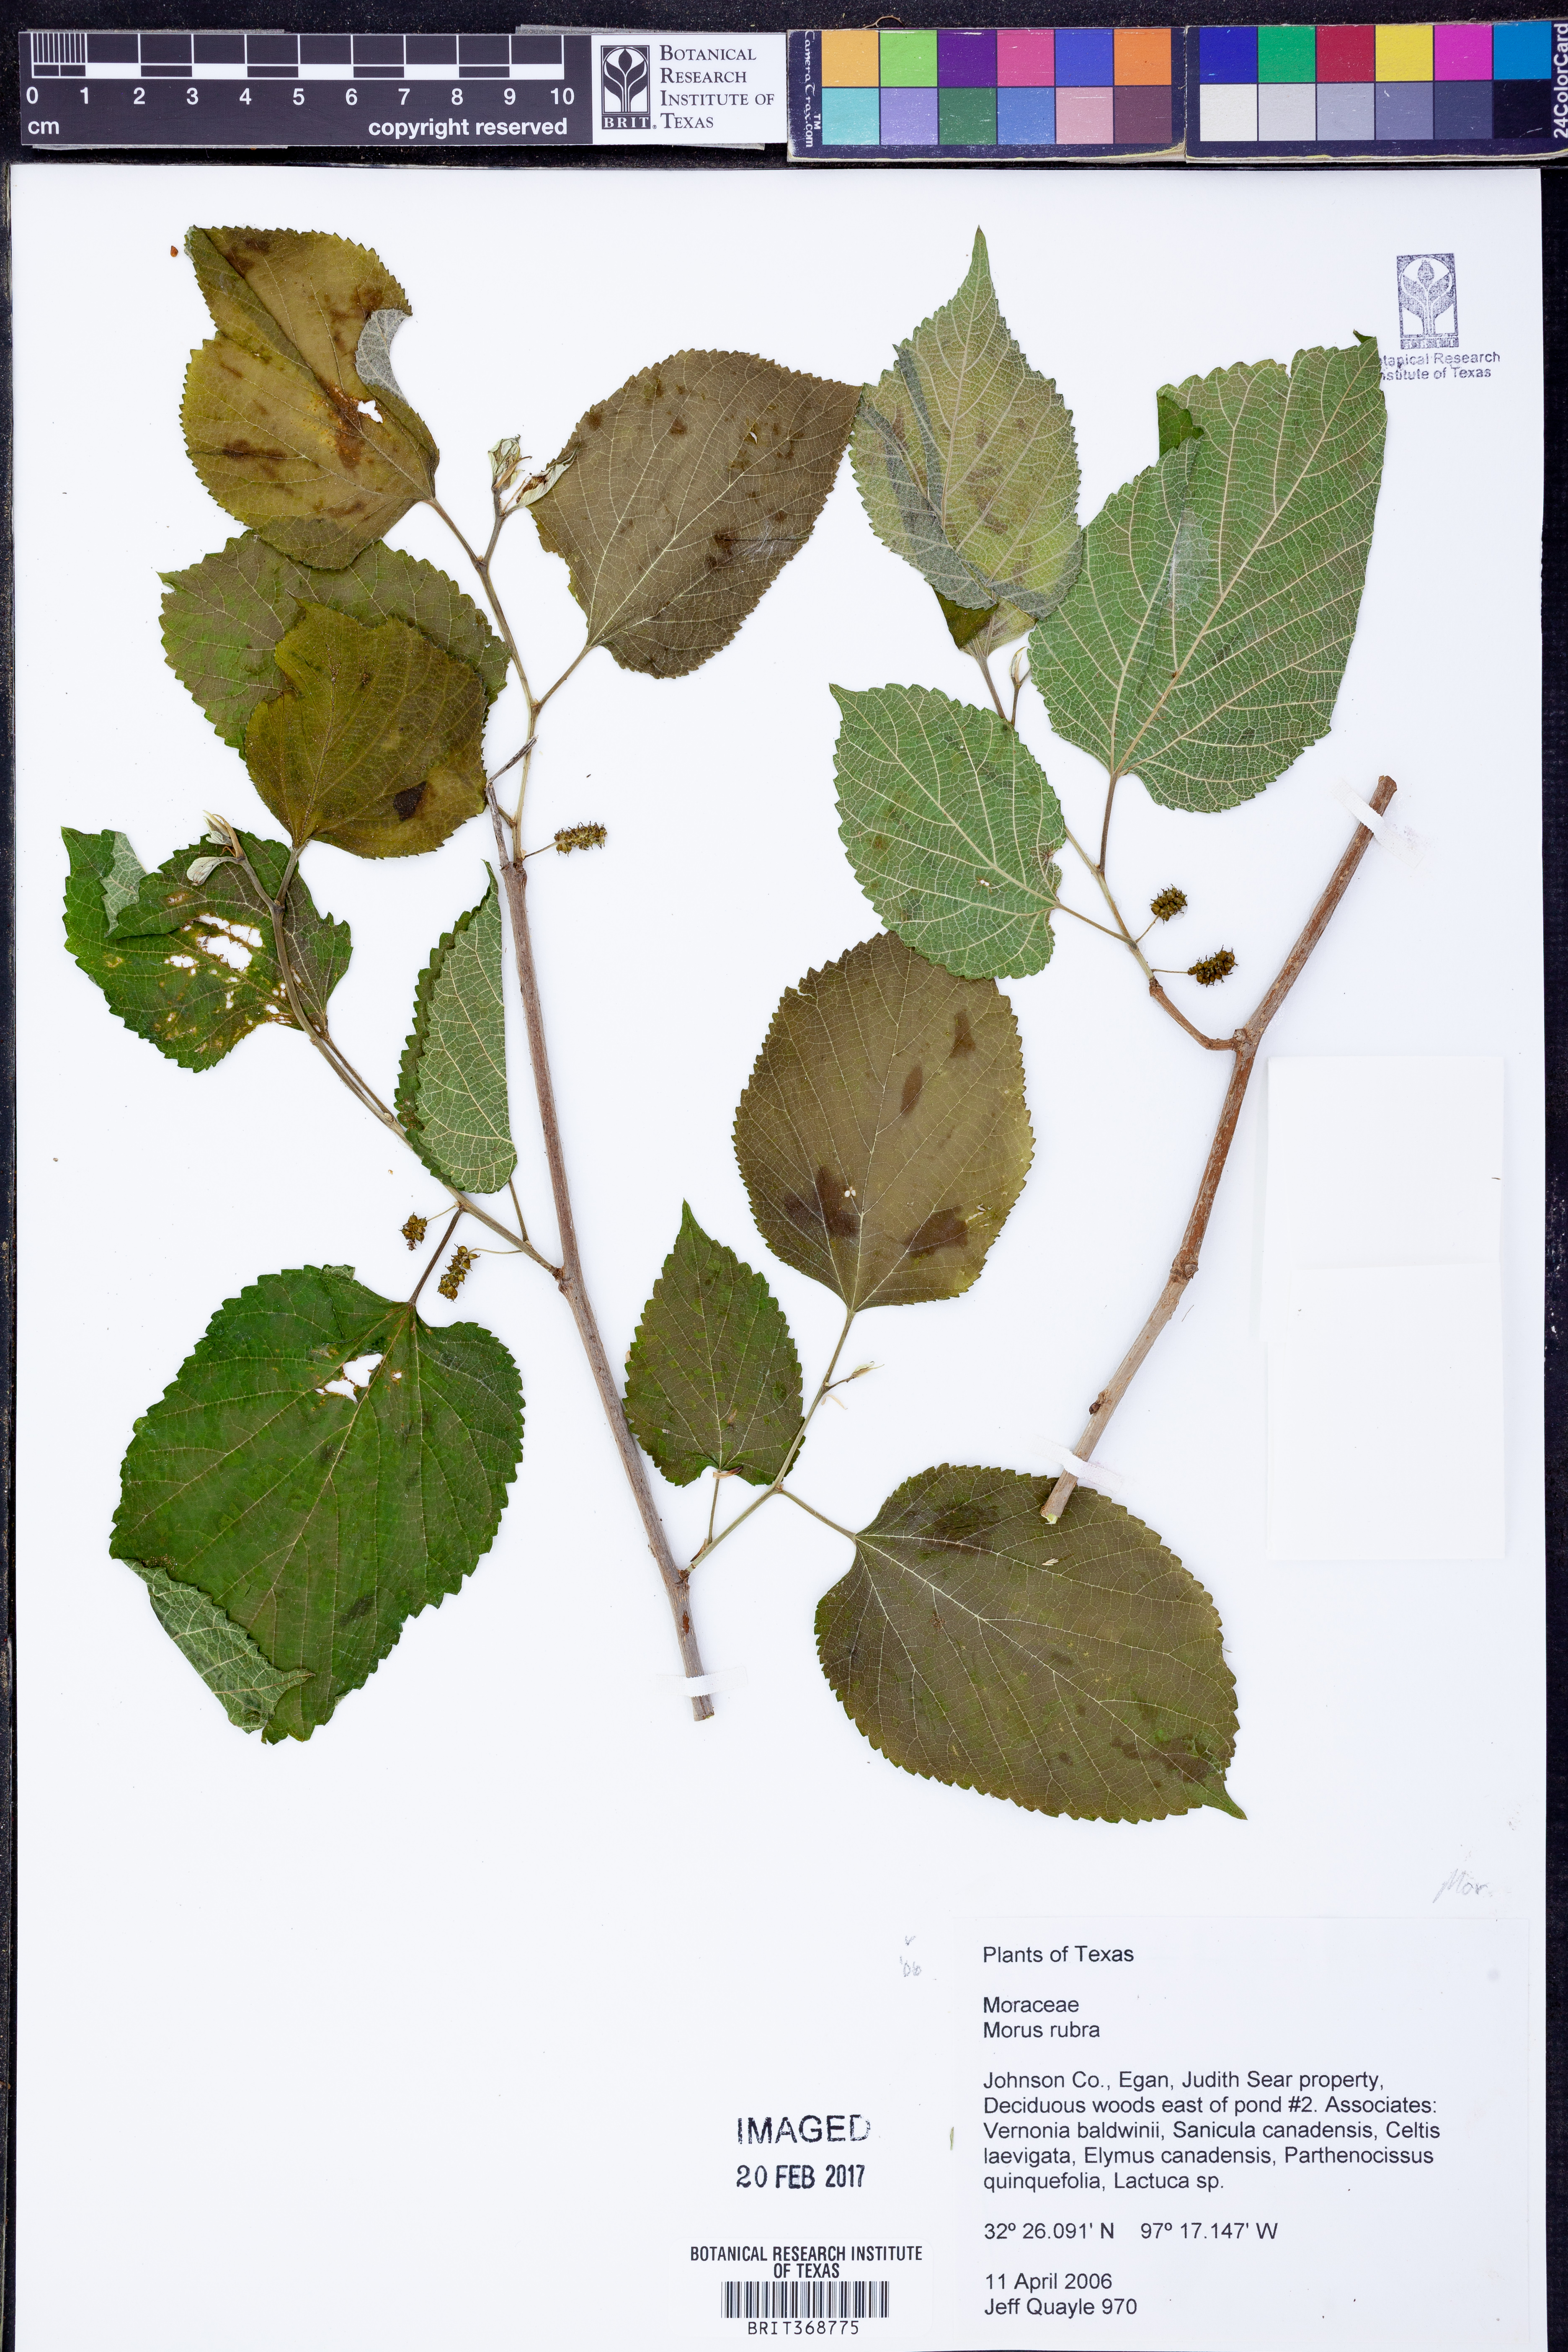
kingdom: Plantae
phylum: Tracheophyta
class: Magnoliopsida
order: Rosales
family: Moraceae
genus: Morus
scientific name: Morus rubra
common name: Red mulberry
